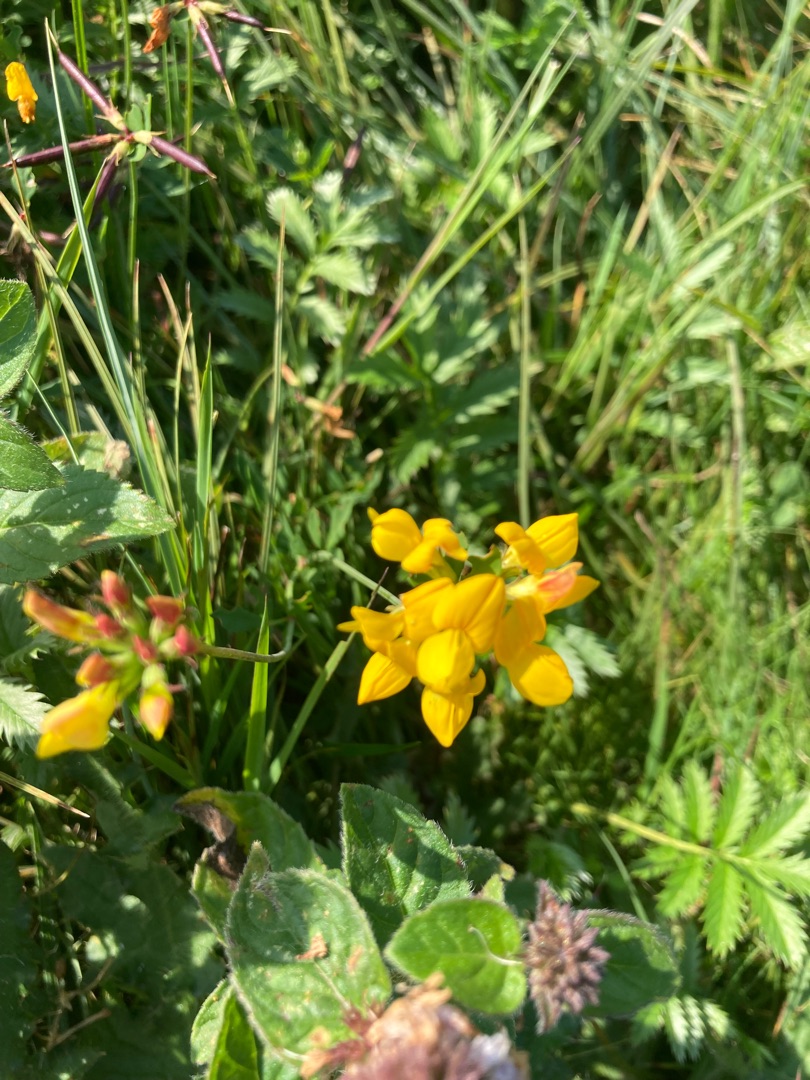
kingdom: Plantae
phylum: Tracheophyta
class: Magnoliopsida
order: Fabales
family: Fabaceae
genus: Lotus
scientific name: Lotus corniculatus
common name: Almindelig kællingetand
